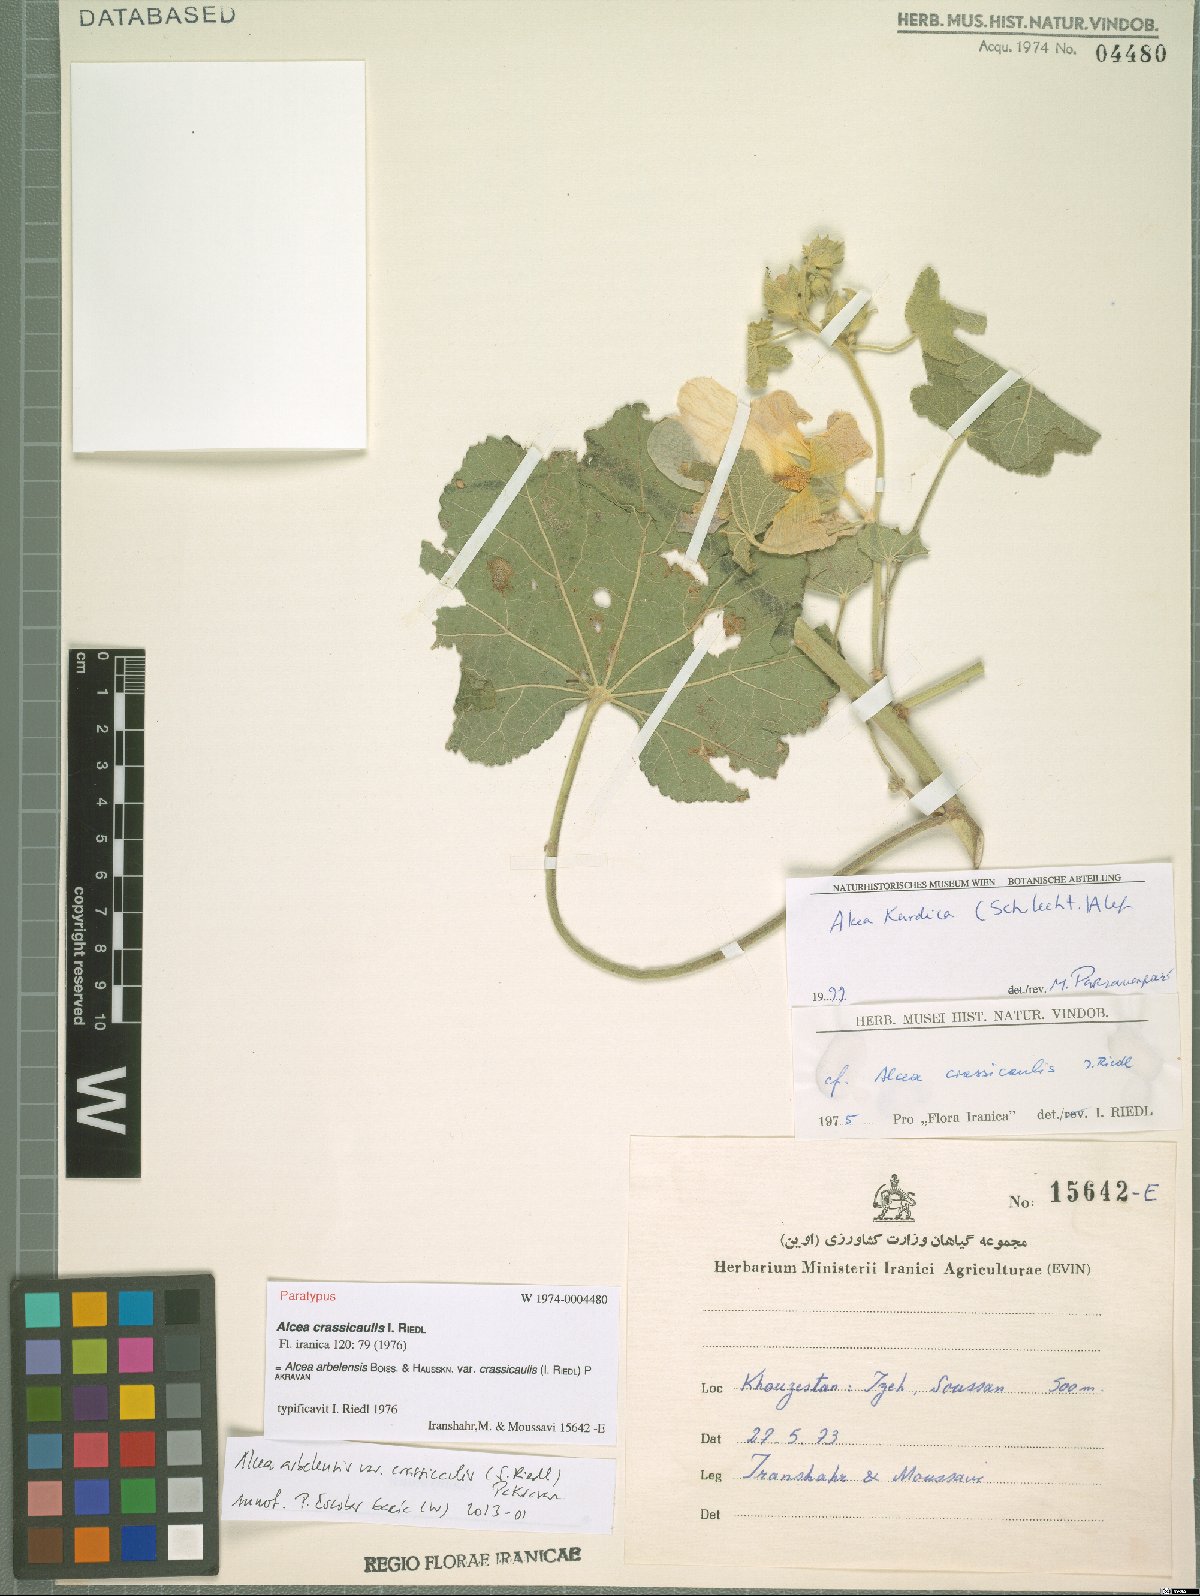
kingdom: Plantae
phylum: Tracheophyta
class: Magnoliopsida
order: Malvales
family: Malvaceae
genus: Alcea
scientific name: Alcea arbelensis
